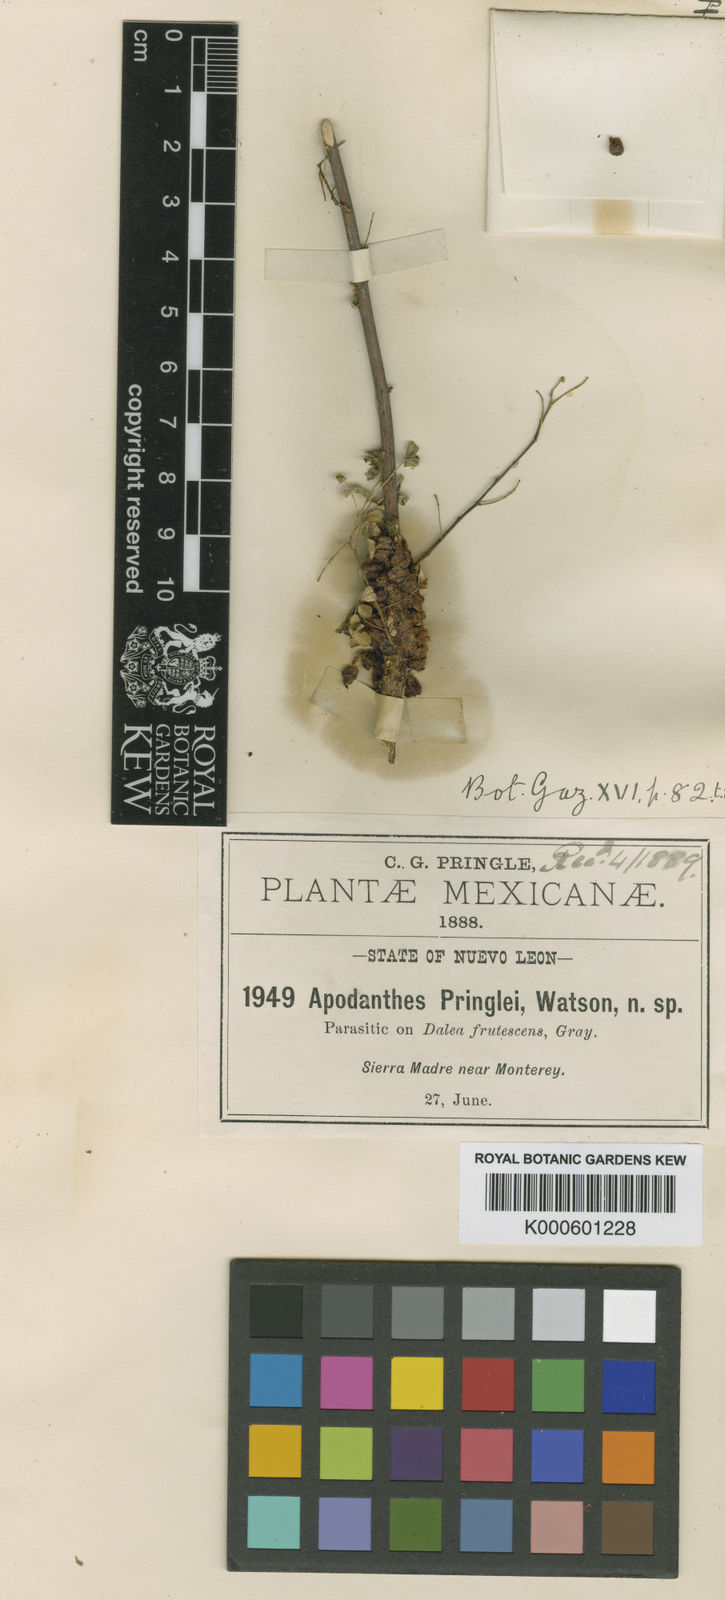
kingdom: Plantae
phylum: Tracheophyta
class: Magnoliopsida
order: Cucurbitales
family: Apodanthaceae
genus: Pilostyles
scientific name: Pilostyles
